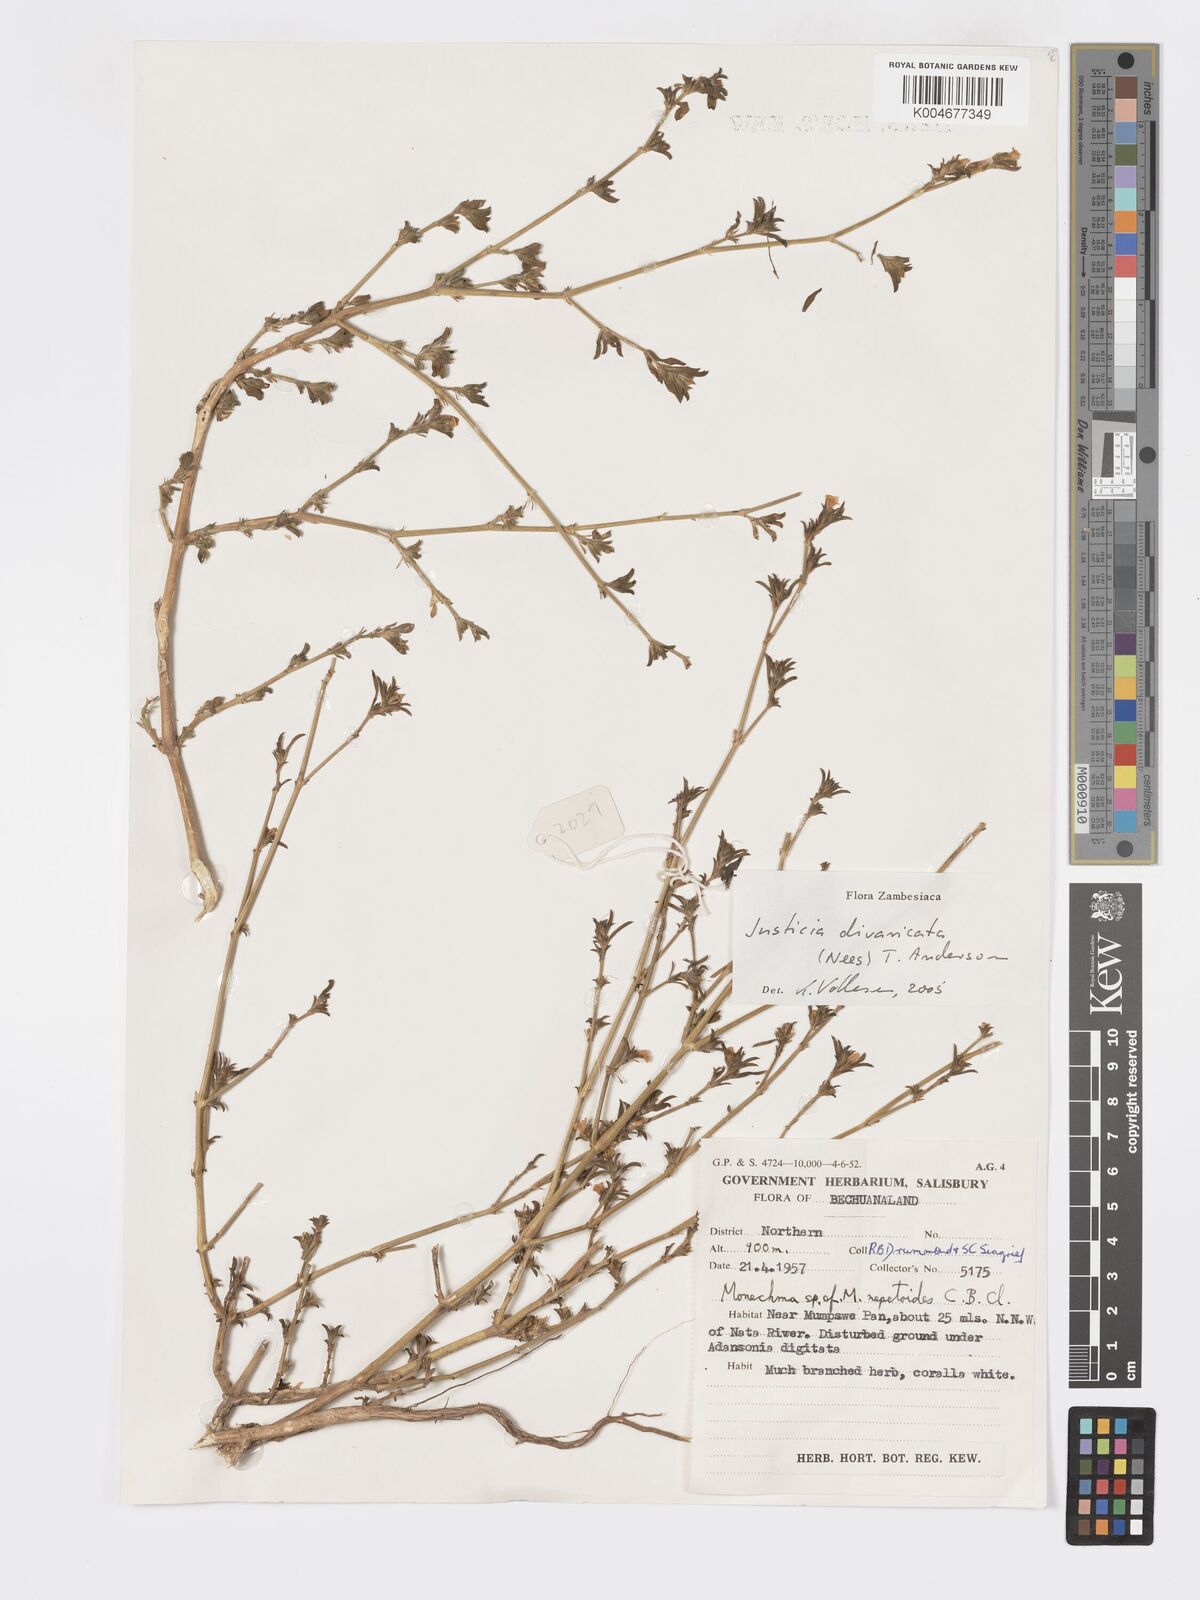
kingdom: Plantae
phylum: Tracheophyta
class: Magnoliopsida
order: Lamiales
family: Acanthaceae
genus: Pogonospermum
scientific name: Pogonospermum
